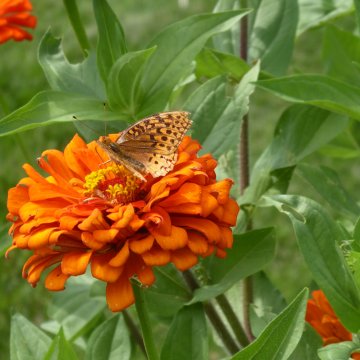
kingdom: Animalia
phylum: Arthropoda
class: Insecta
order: Lepidoptera
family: Nymphalidae
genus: Speyeria
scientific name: Speyeria cybele
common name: Great Spangled Fritillary
